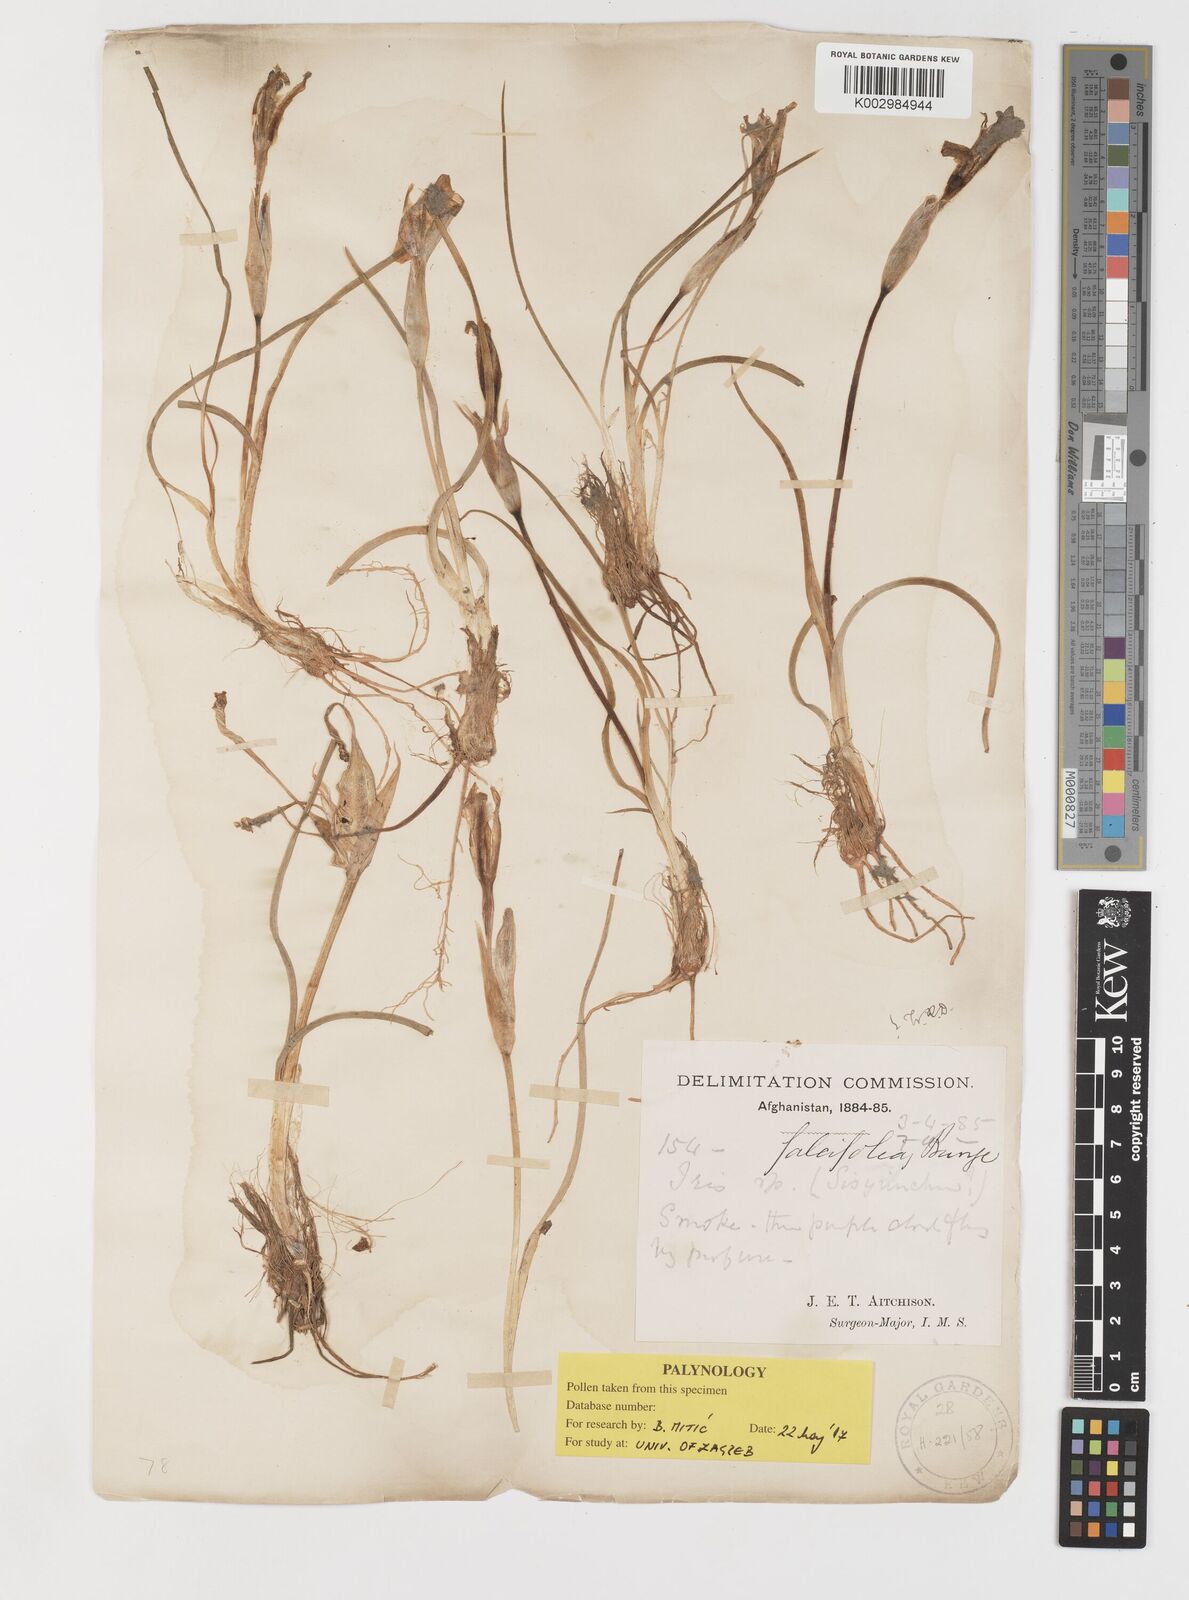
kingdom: Plantae
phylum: Tracheophyta
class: Liliopsida
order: Asparagales
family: Iridaceae
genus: Iris
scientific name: Iris longiscapa
